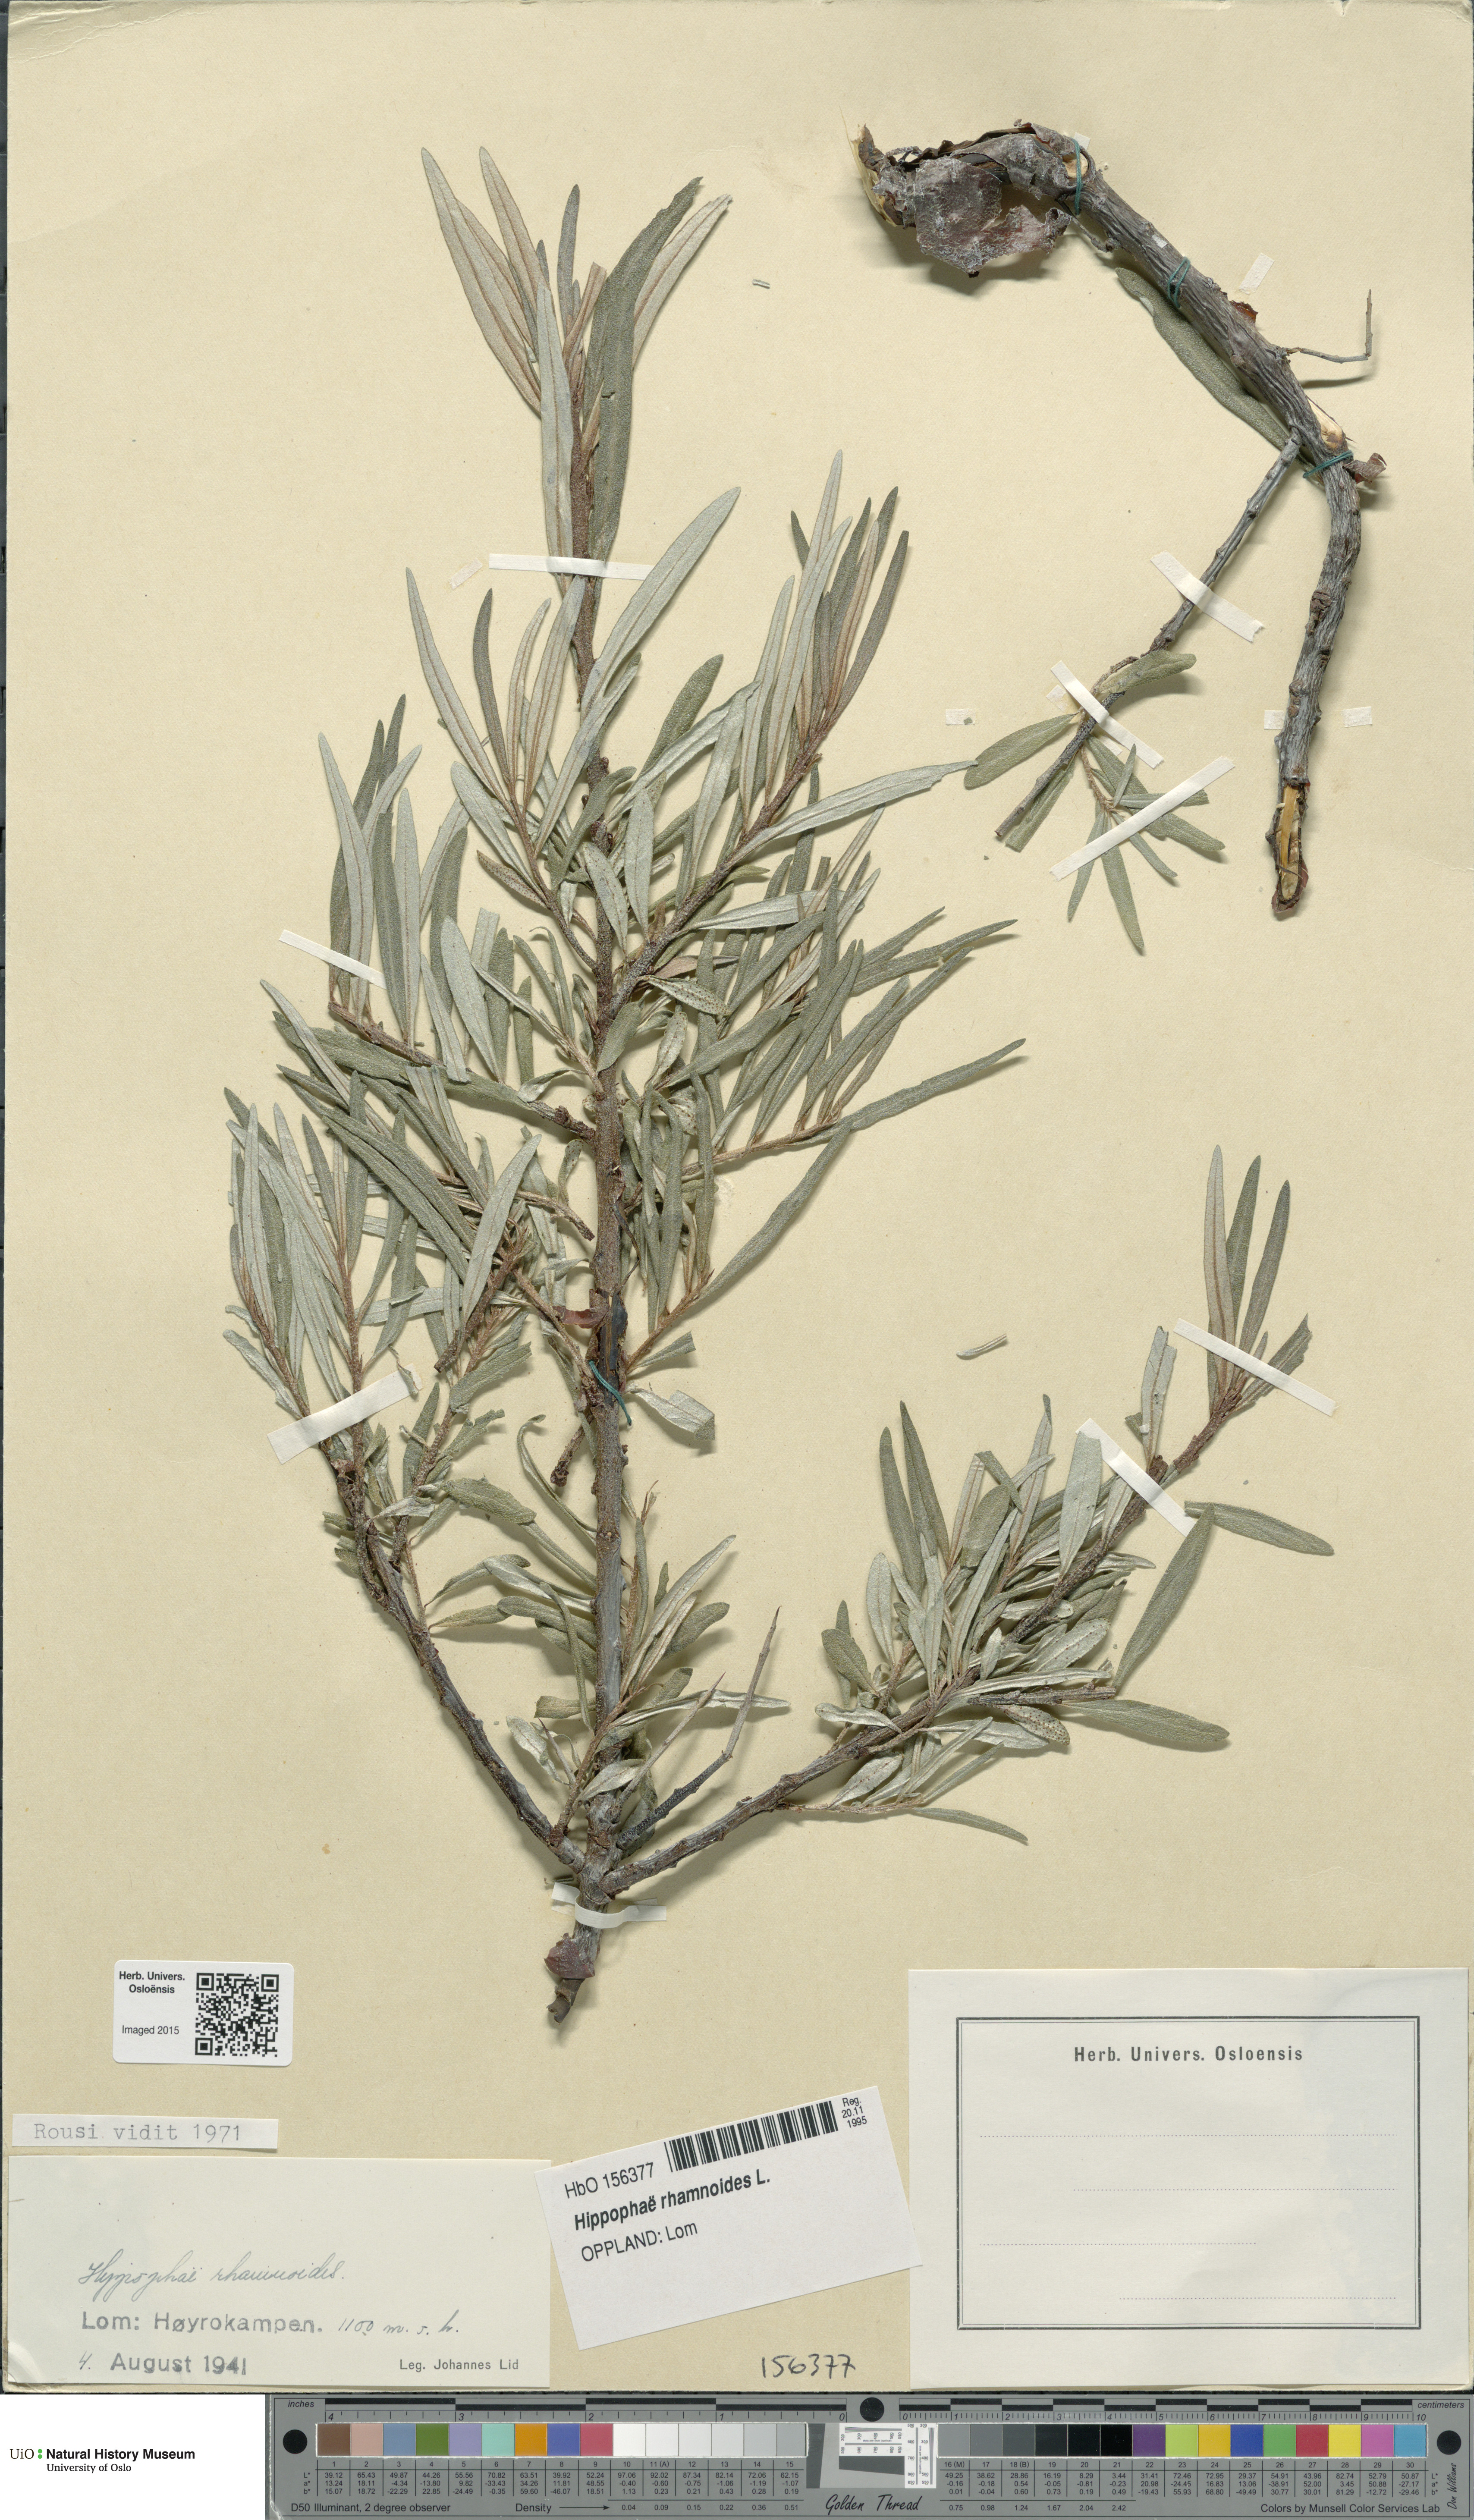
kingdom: Plantae
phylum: Tracheophyta
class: Magnoliopsida
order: Rosales
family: Elaeagnaceae
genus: Hippophae
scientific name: Hippophae rhamnoides
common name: Sea-buckthorn
